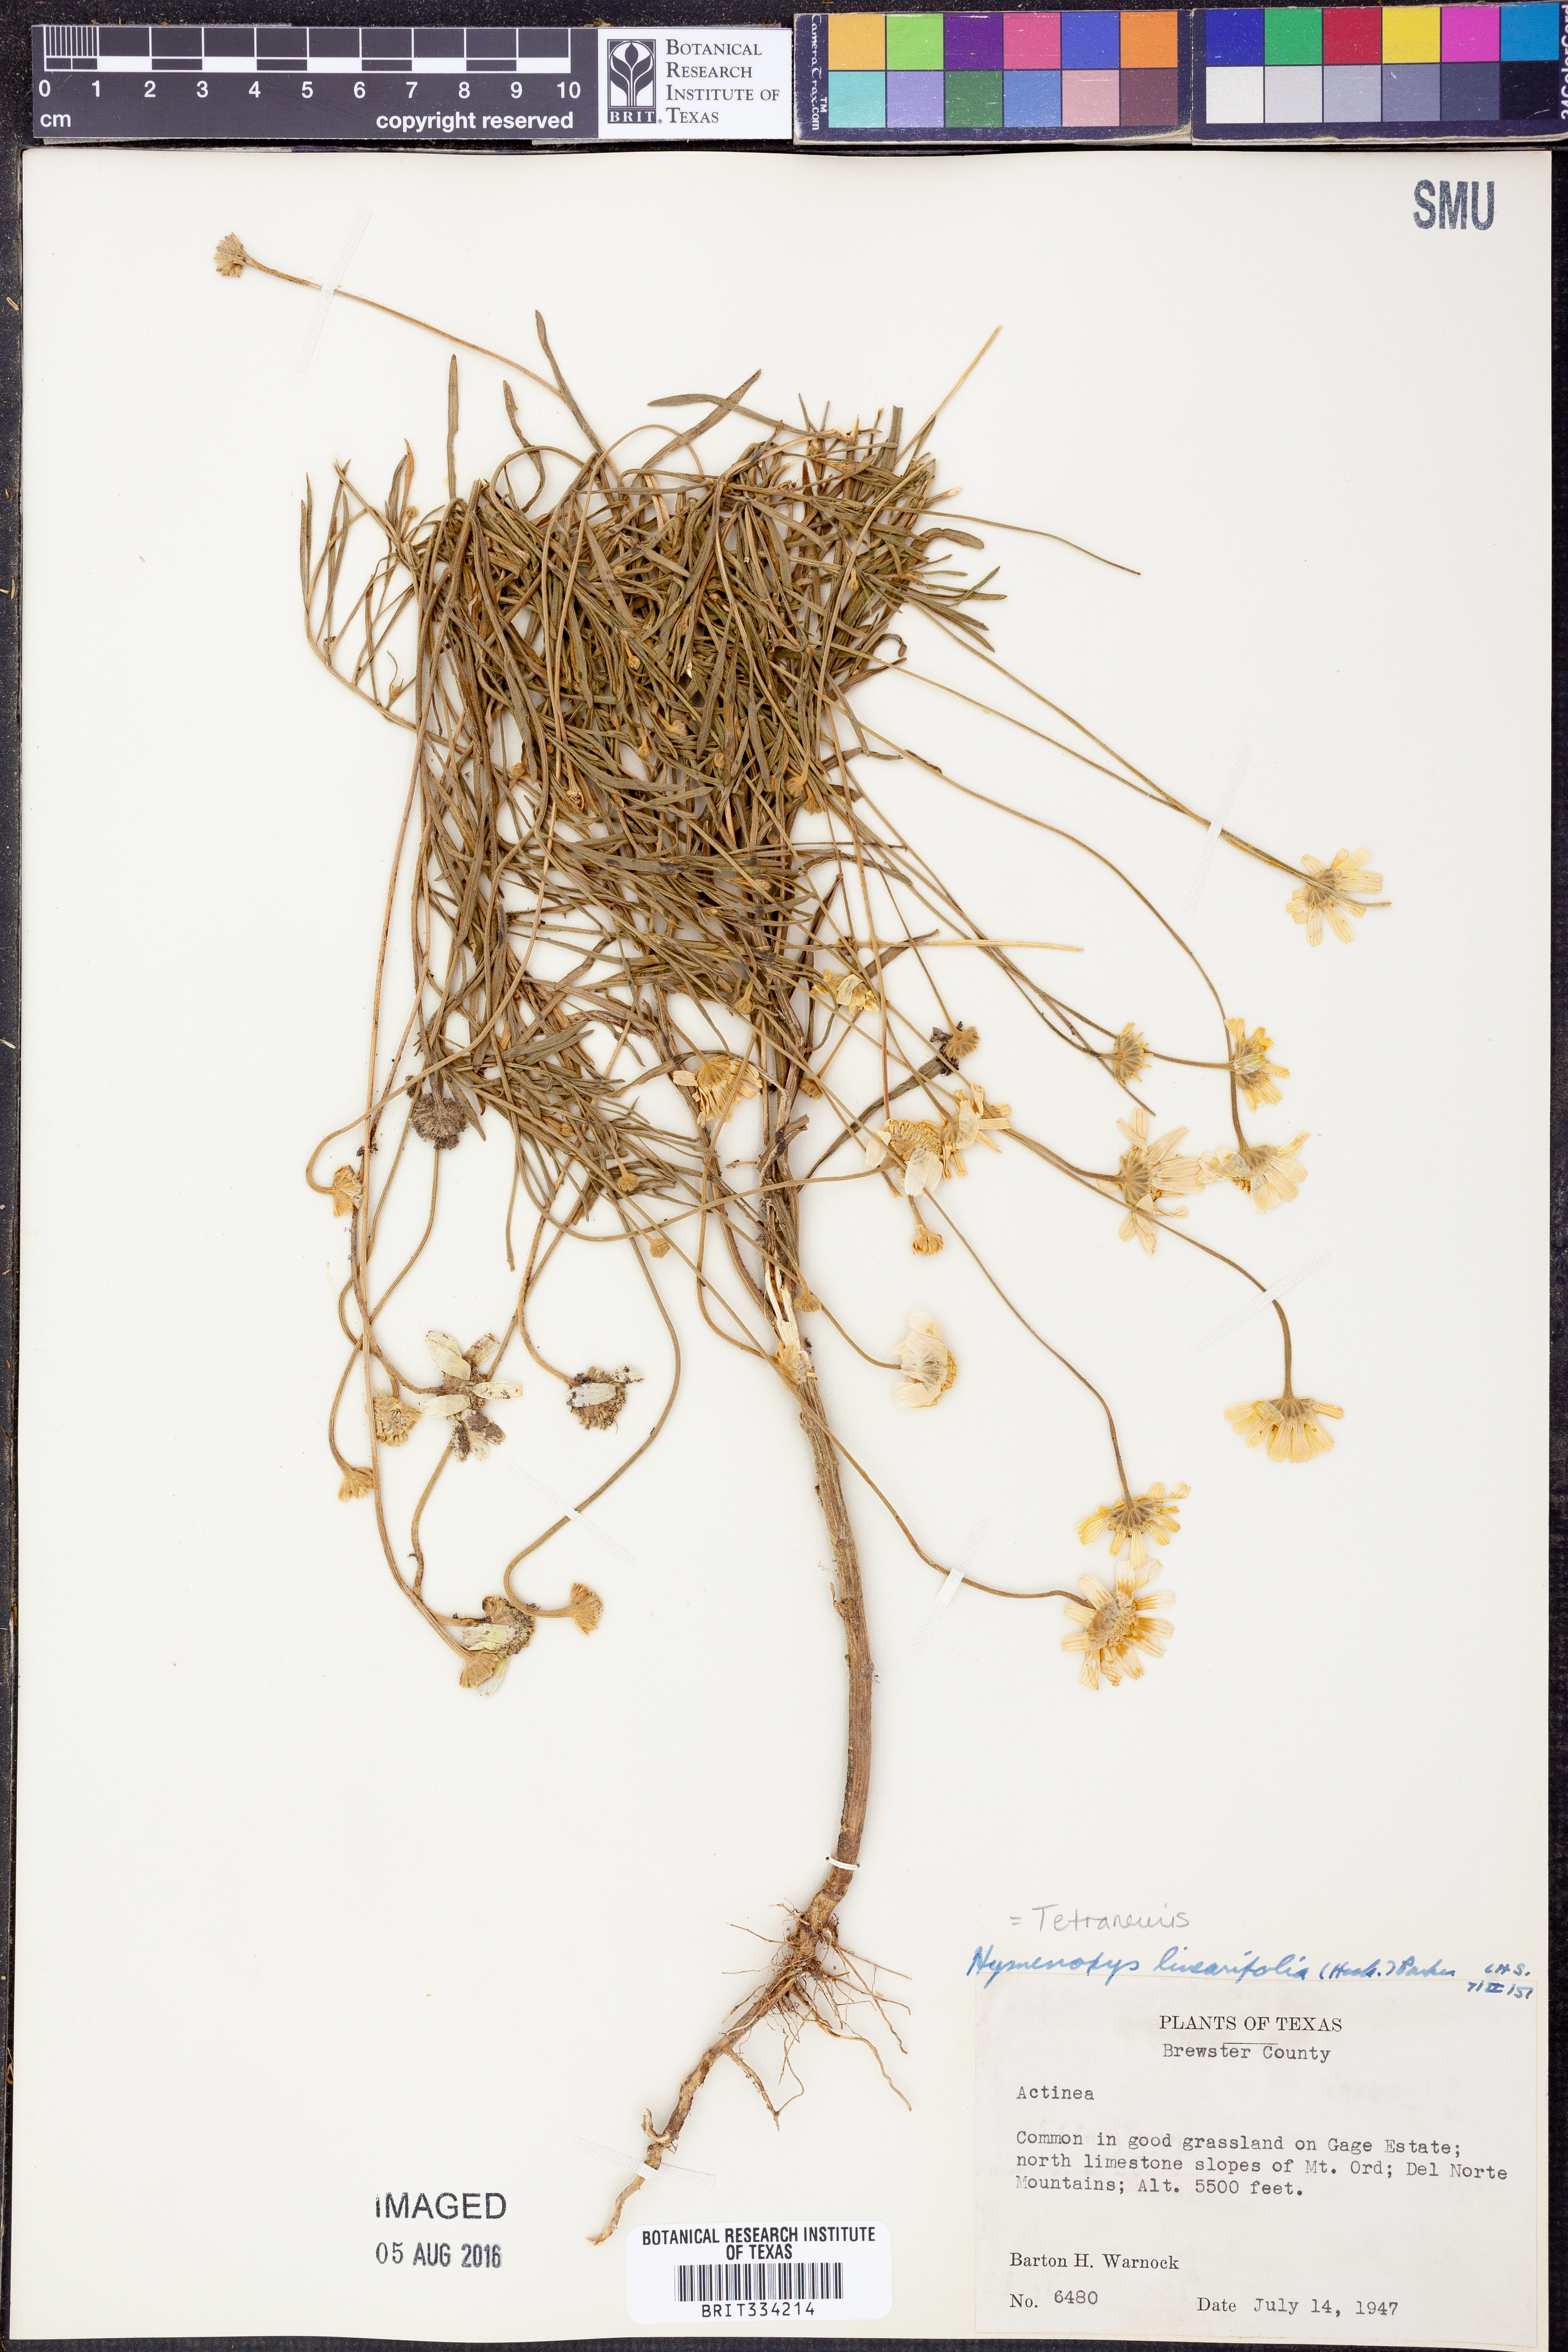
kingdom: Plantae
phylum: Tracheophyta
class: Magnoliopsida
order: Asterales
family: Asteraceae
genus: Tetraneuris
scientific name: Tetraneuris linearifolia
